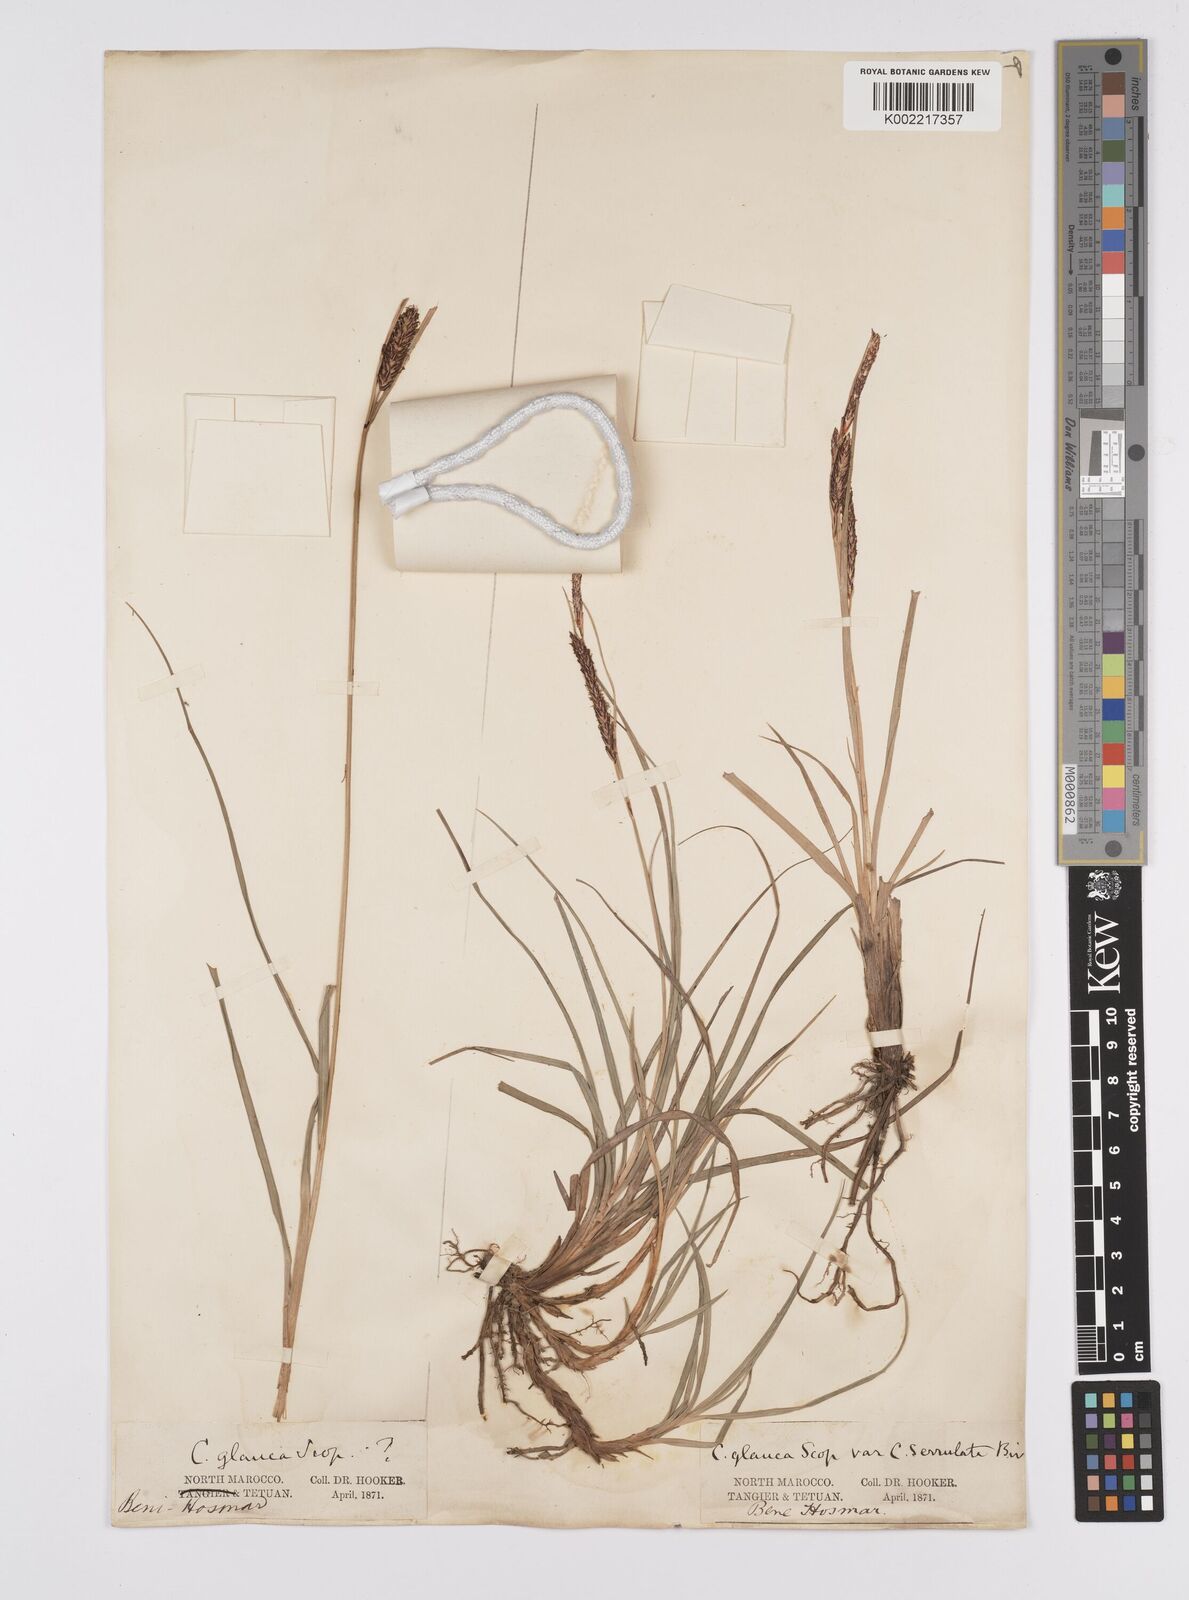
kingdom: Plantae
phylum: Tracheophyta
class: Liliopsida
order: Poales
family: Cyperaceae
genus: Carex
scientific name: Carex flacca
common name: Glaucous sedge
